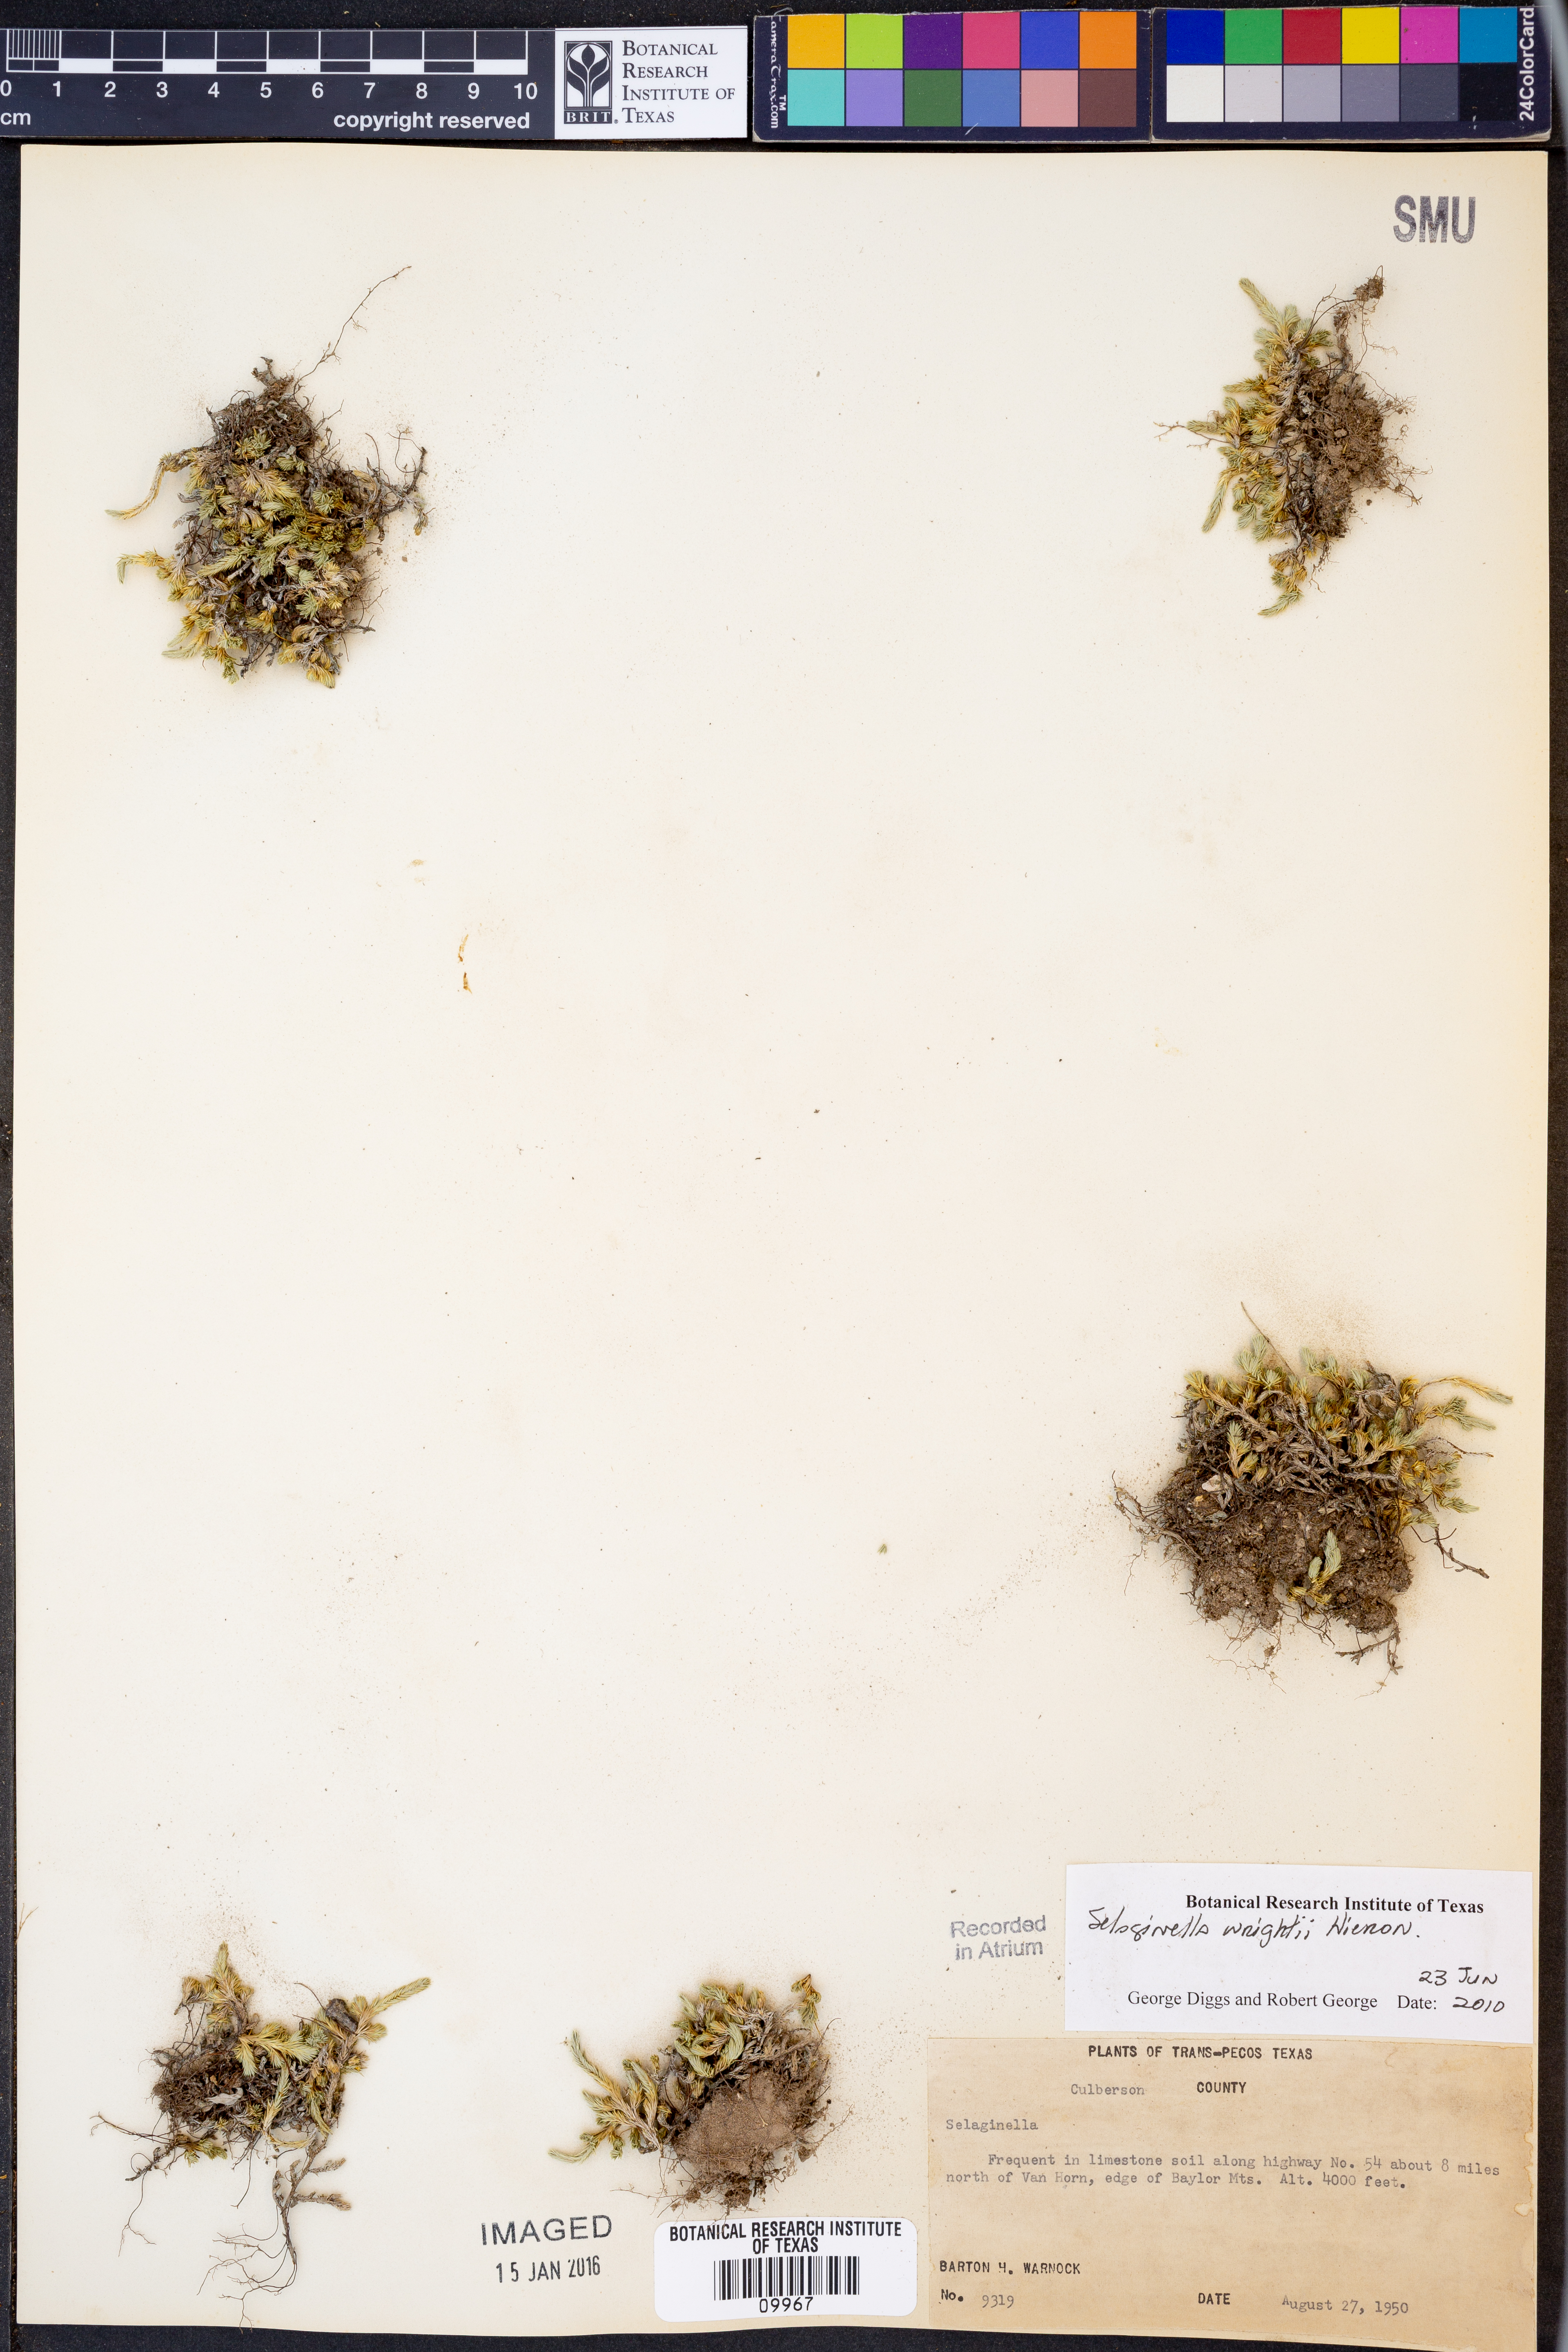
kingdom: Plantae
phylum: Tracheophyta
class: Lycopodiopsida
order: Selaginellales
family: Selaginellaceae
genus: Selaginella
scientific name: Selaginella wrightii
